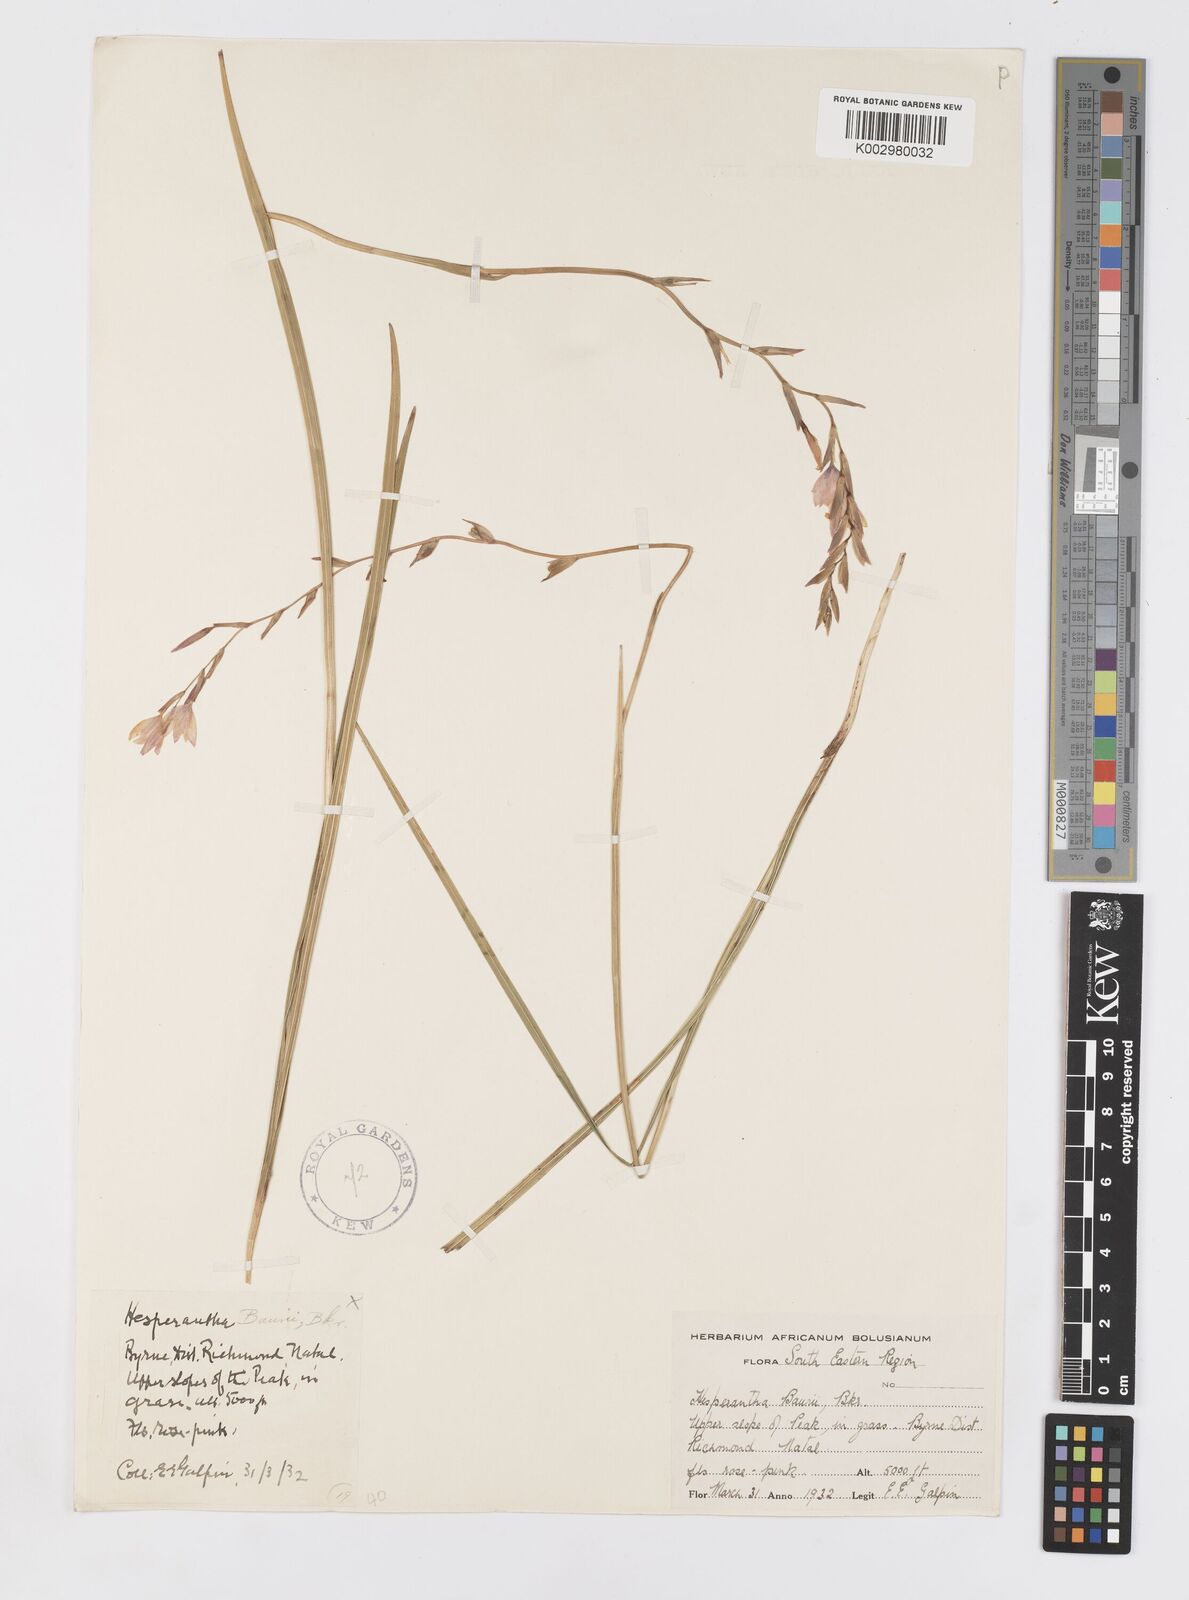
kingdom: Plantae
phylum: Tracheophyta
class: Liliopsida
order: Asparagales
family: Iridaceae
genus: Hesperantha
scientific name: Hesperantha baurii
